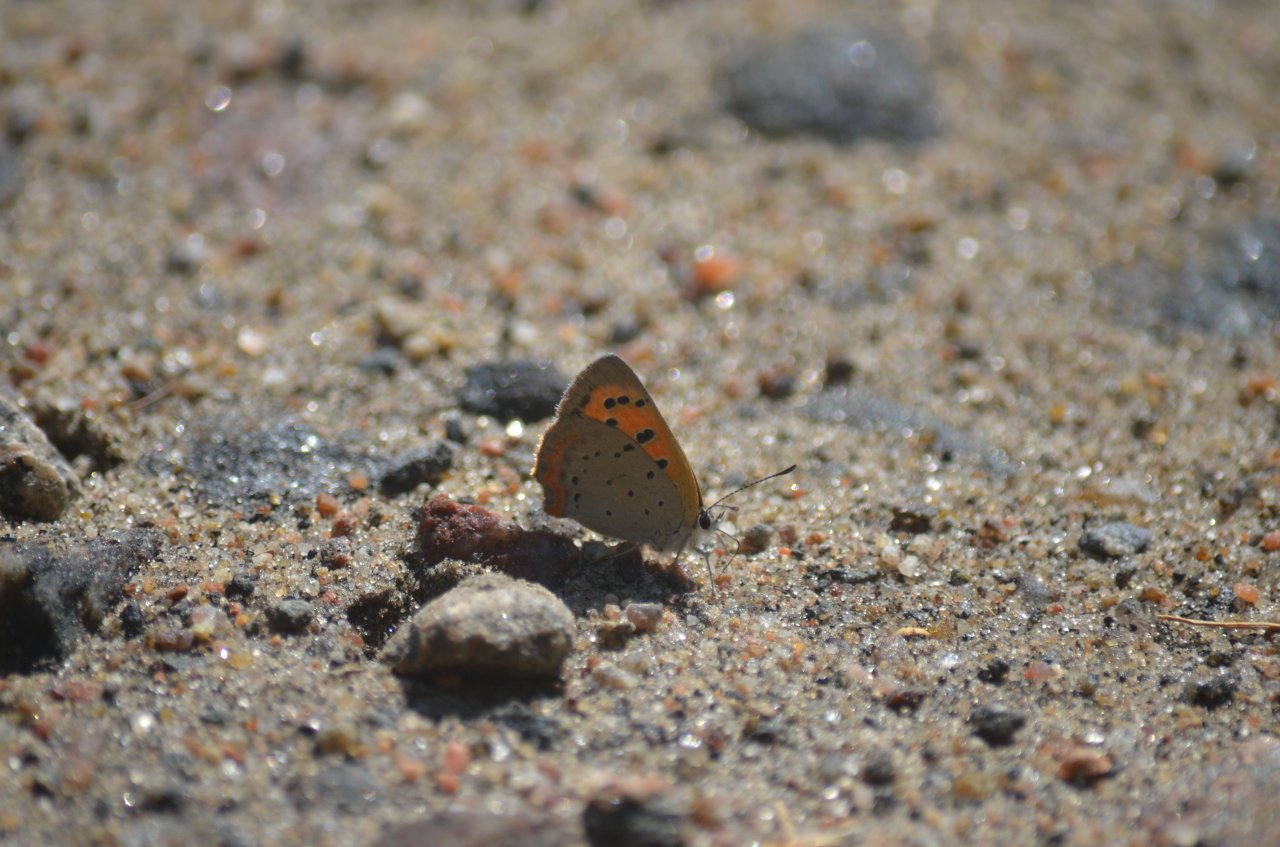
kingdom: Animalia
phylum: Arthropoda
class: Insecta
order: Lepidoptera
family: Lycaenidae
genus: Lycaena
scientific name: Lycaena phlaeas
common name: American Copper
